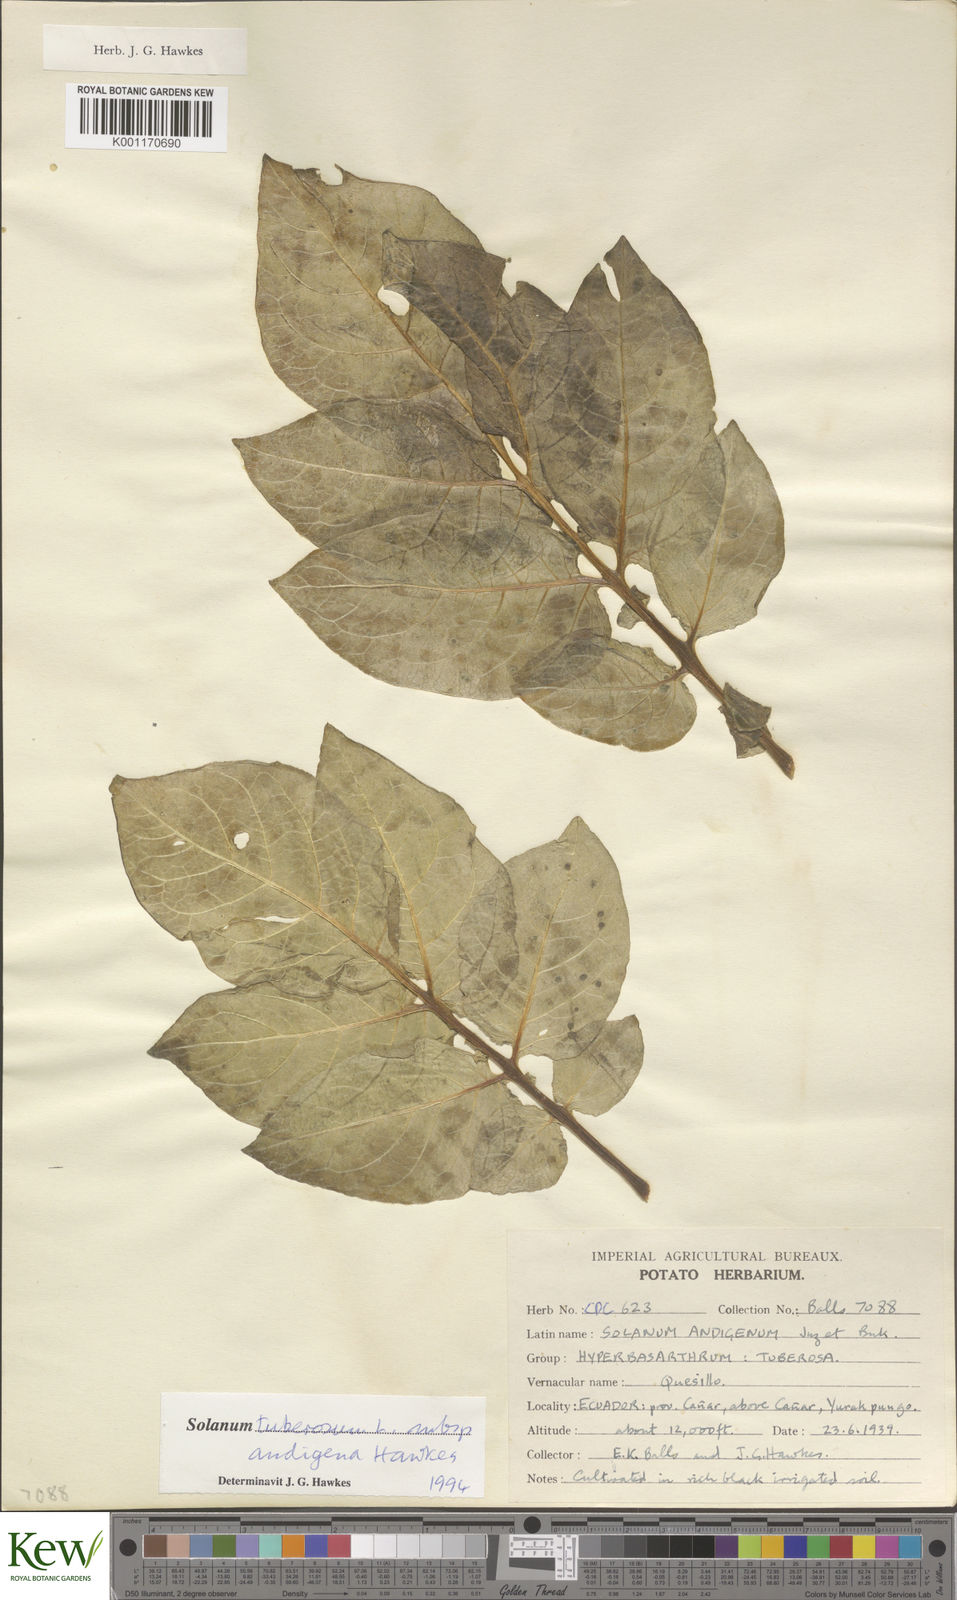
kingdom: Plantae
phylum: Tracheophyta
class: Magnoliopsida
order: Solanales
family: Solanaceae
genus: Solanum
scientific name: Solanum tuberosum
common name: Potato
